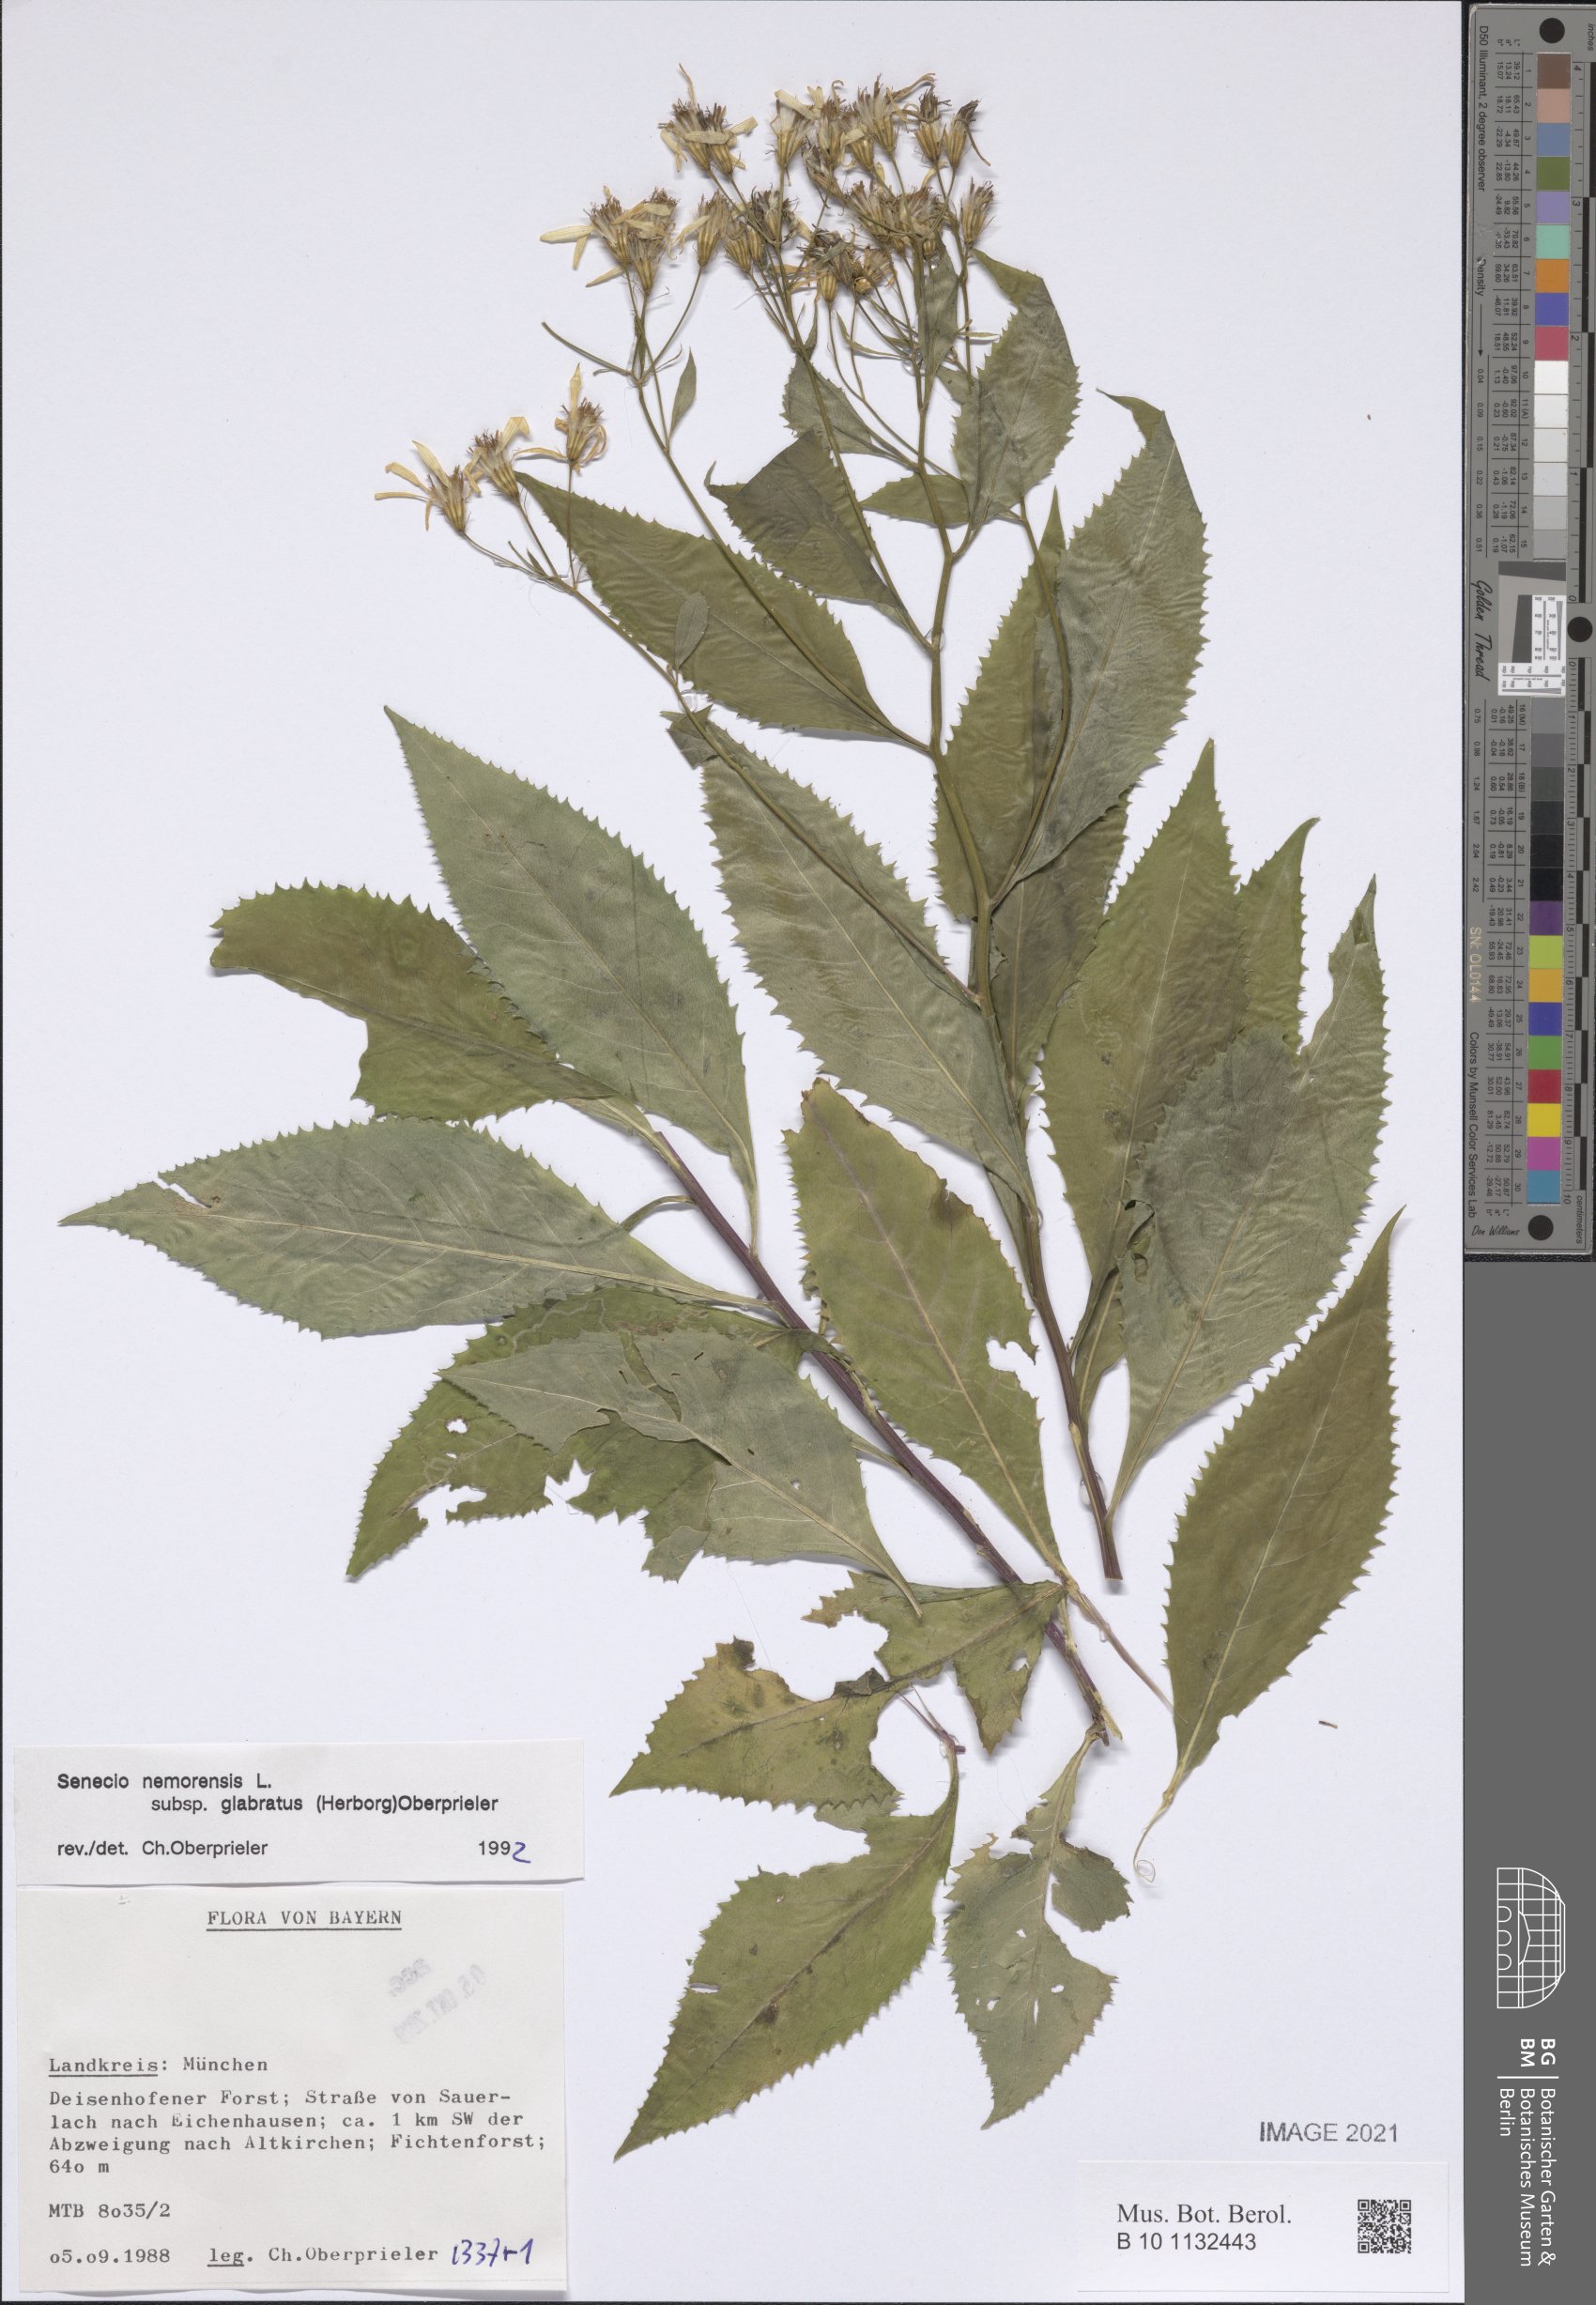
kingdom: Plantae
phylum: Tracheophyta
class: Magnoliopsida
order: Asterales
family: Asteraceae
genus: Senecio
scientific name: Senecio germanicus
